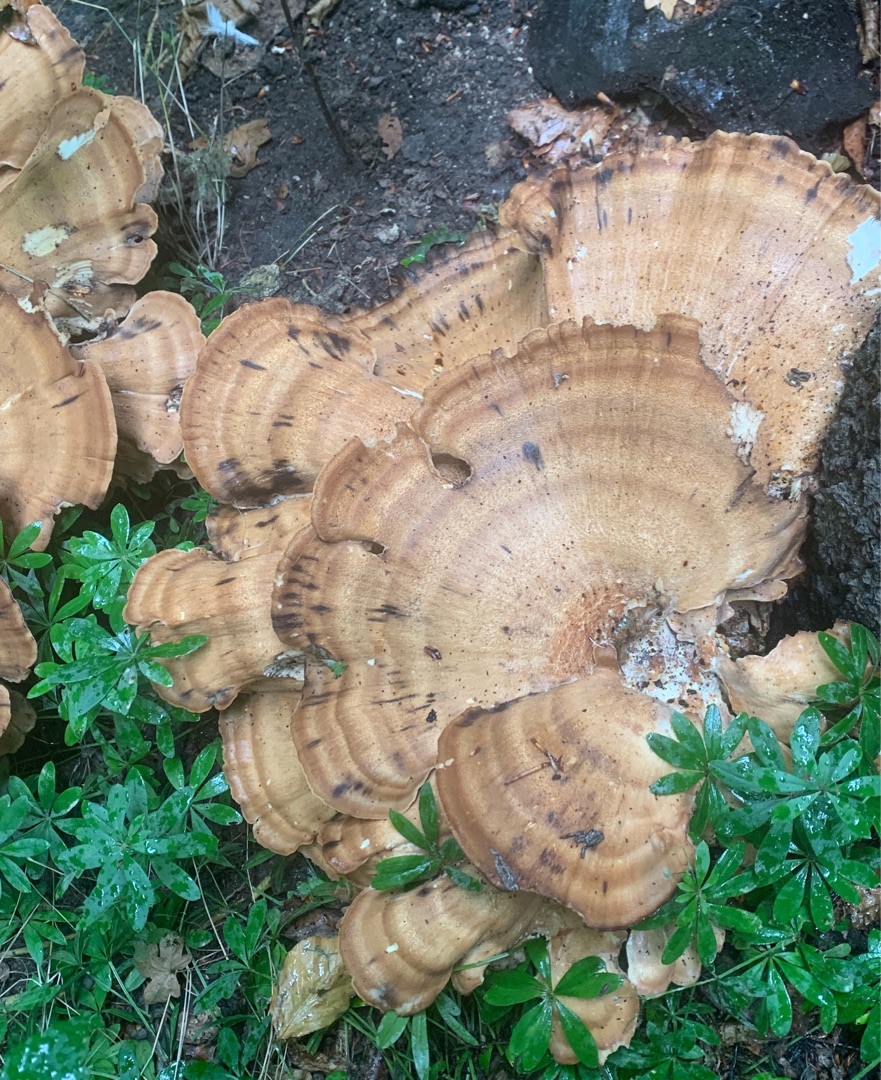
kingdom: Fungi
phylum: Basidiomycota
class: Agaricomycetes
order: Polyporales
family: Meripilaceae
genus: Meripilus
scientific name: Meripilus giganteus
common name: Kæmpeporesvamp
